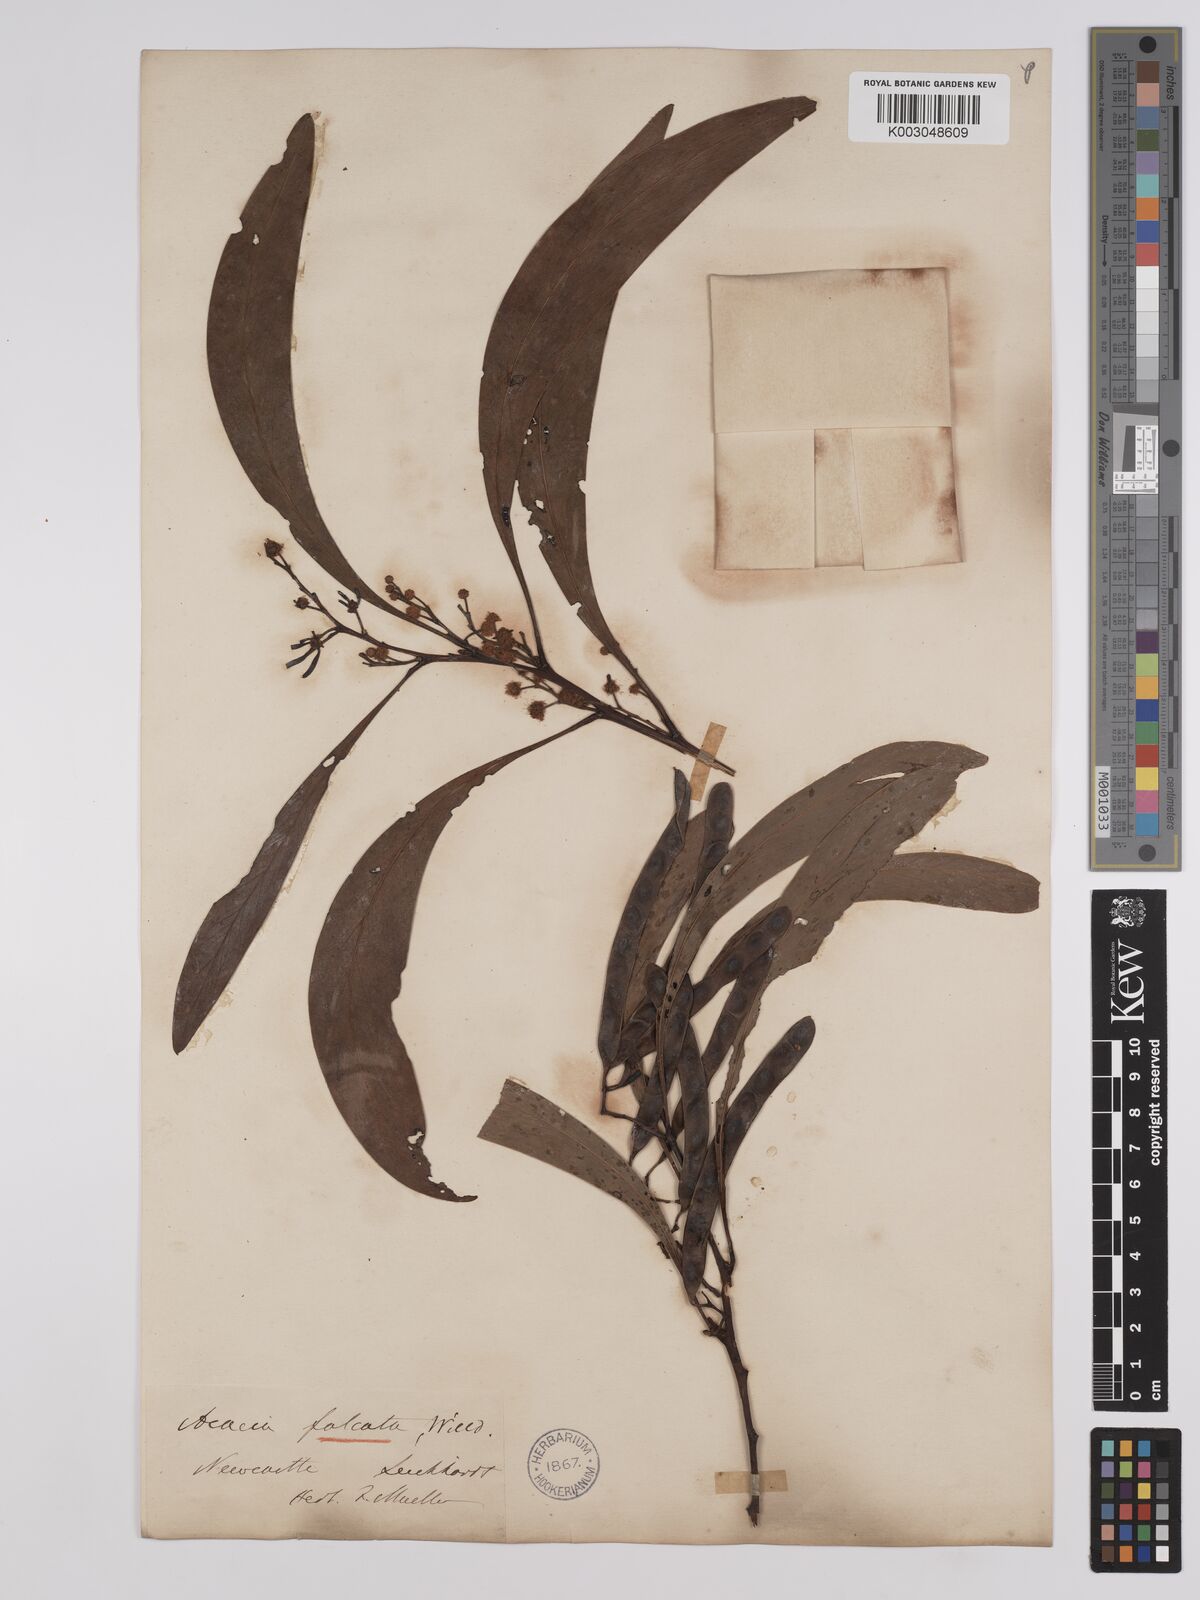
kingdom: Plantae
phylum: Tracheophyta
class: Magnoliopsida
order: Fabales
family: Fabaceae
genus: Acacia
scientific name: Acacia falcata
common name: Burra acacia
